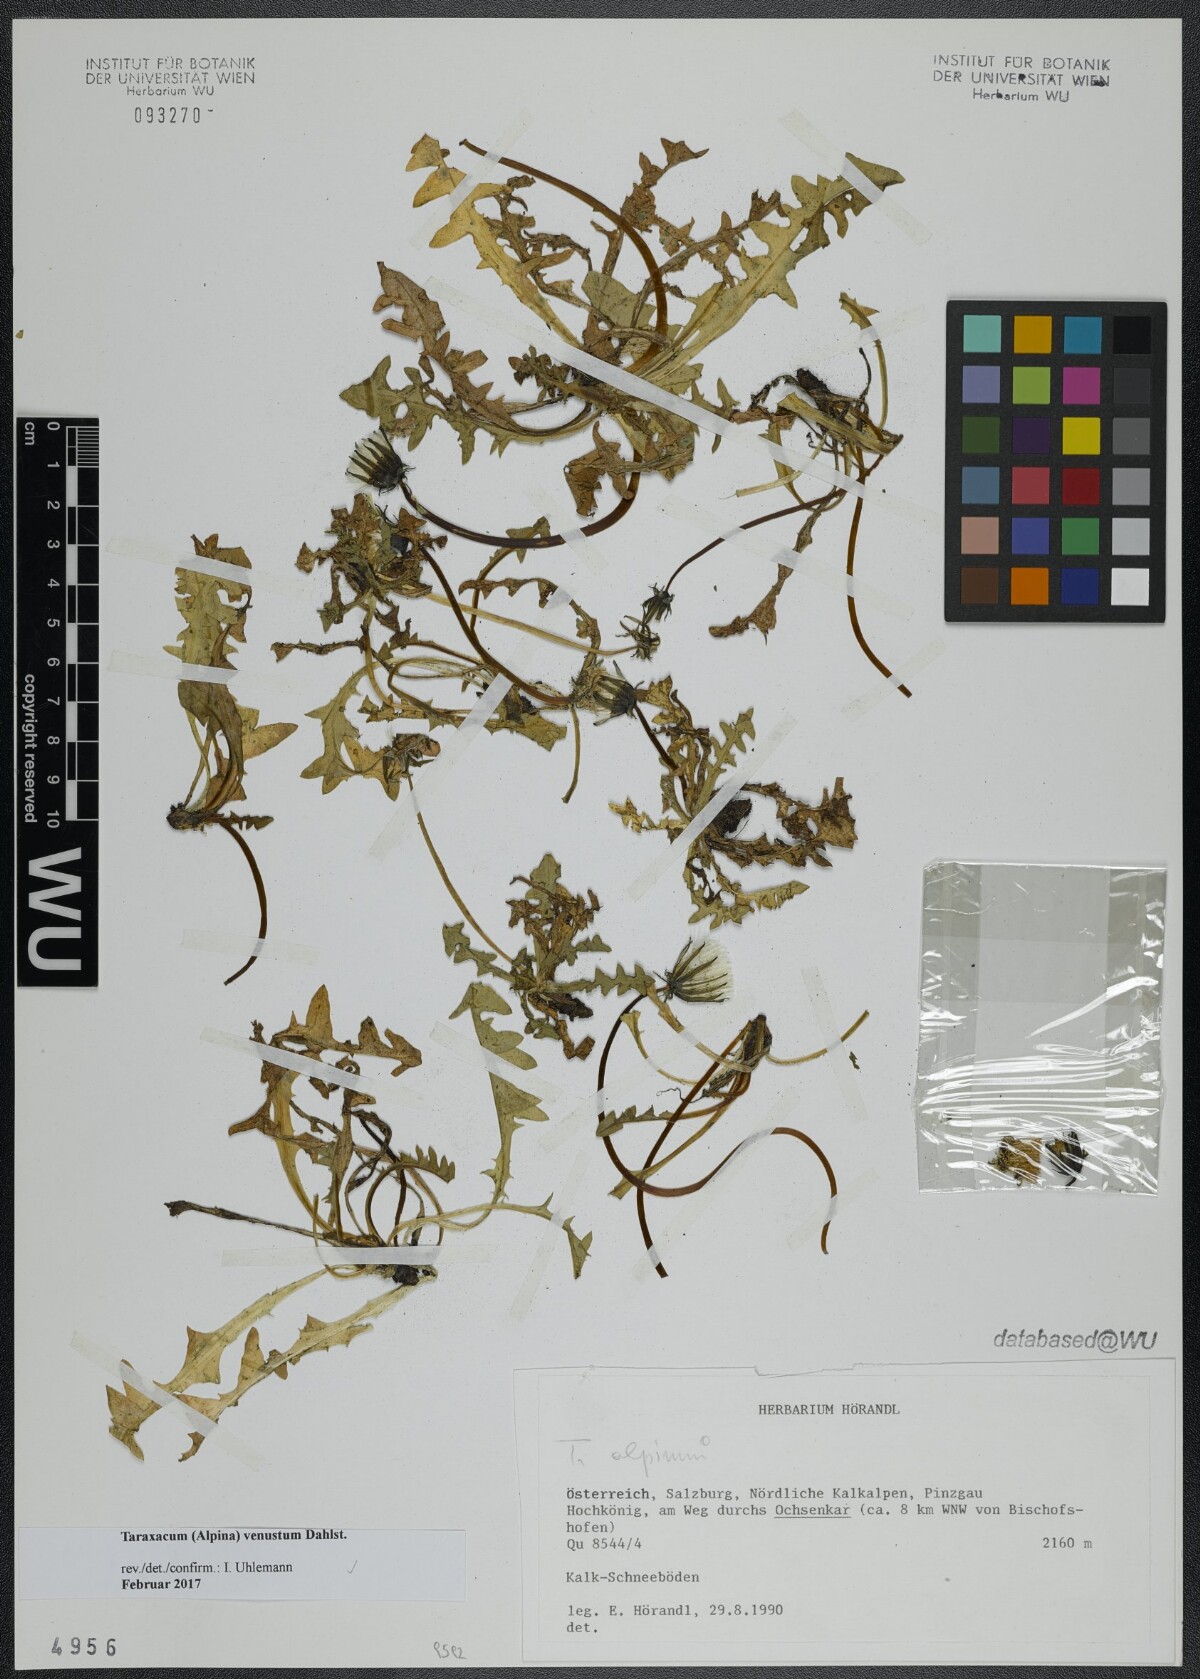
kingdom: Plantae
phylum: Tracheophyta
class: Magnoliopsida
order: Asterales
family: Asteraceae
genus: Taraxacum
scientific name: Taraxacum venustum
